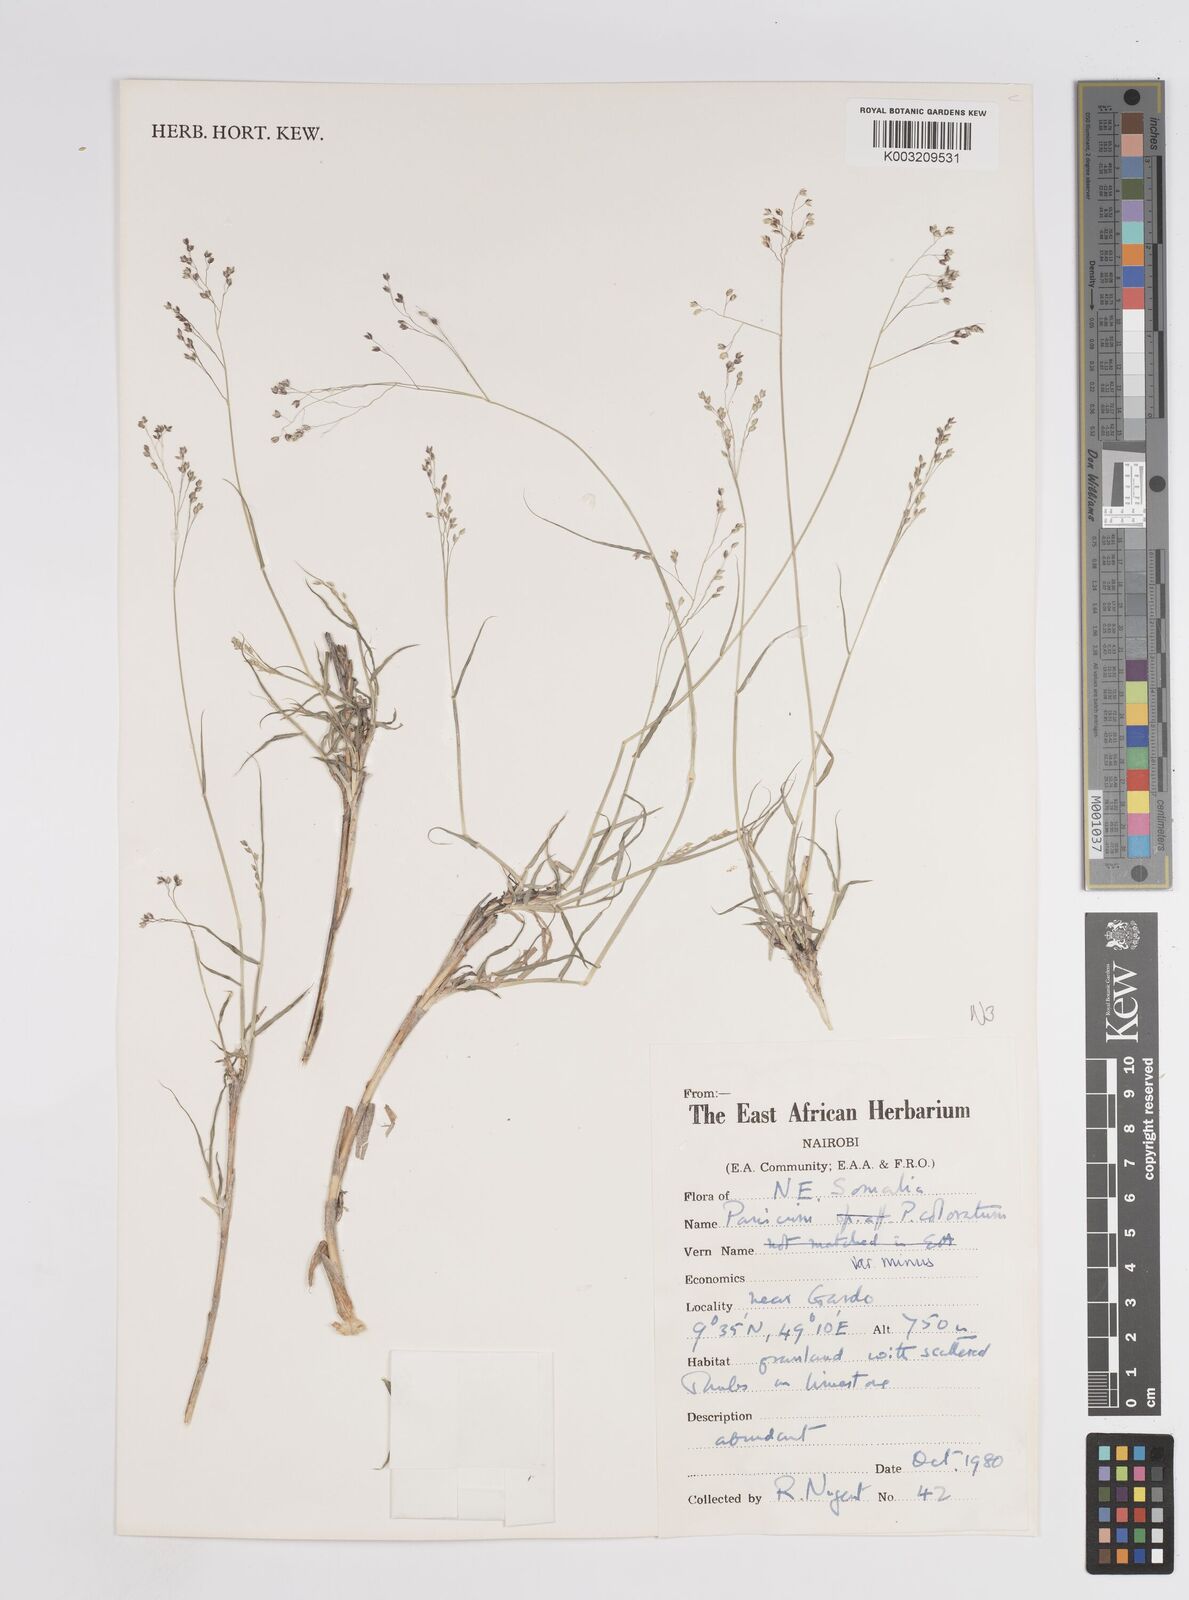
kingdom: Plantae
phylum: Tracheophyta
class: Liliopsida
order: Poales
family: Poaceae
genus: Panicum
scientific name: Panicum coloratum
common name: Kleingrass
